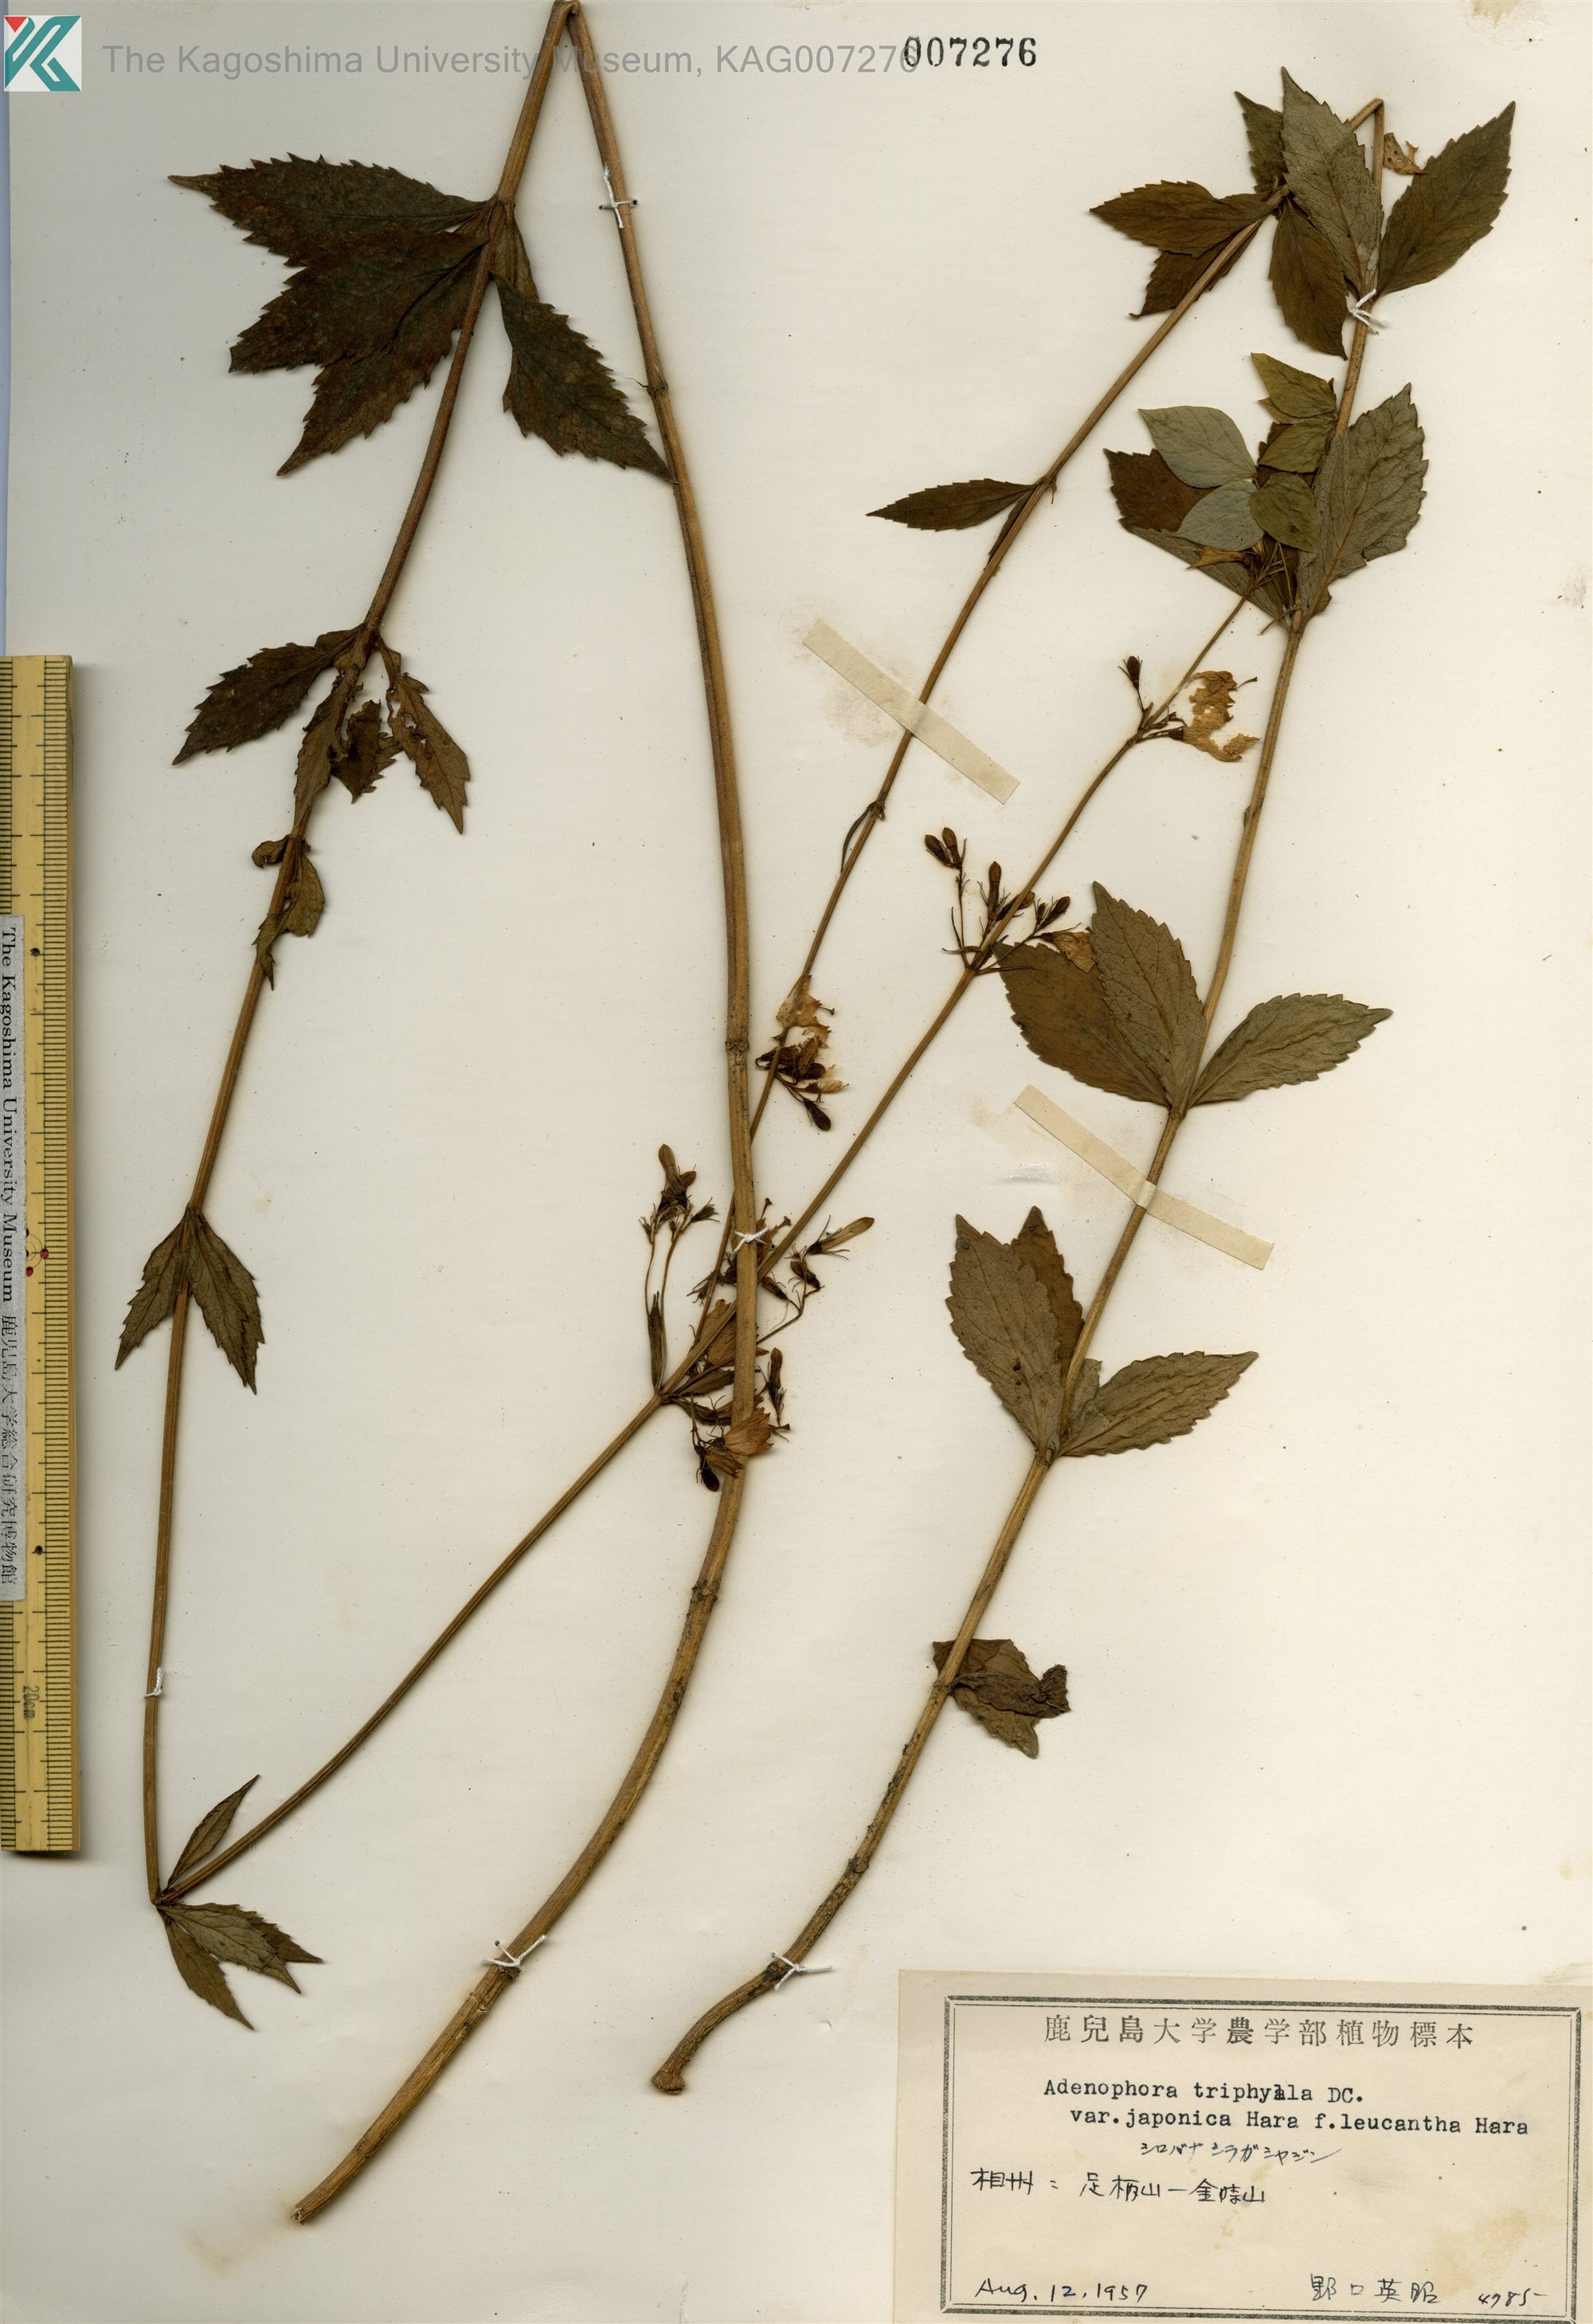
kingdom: Plantae
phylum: Tracheophyta
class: Magnoliopsida
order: Asterales
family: Campanulaceae
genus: Adenophora
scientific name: Adenophora triphylla
